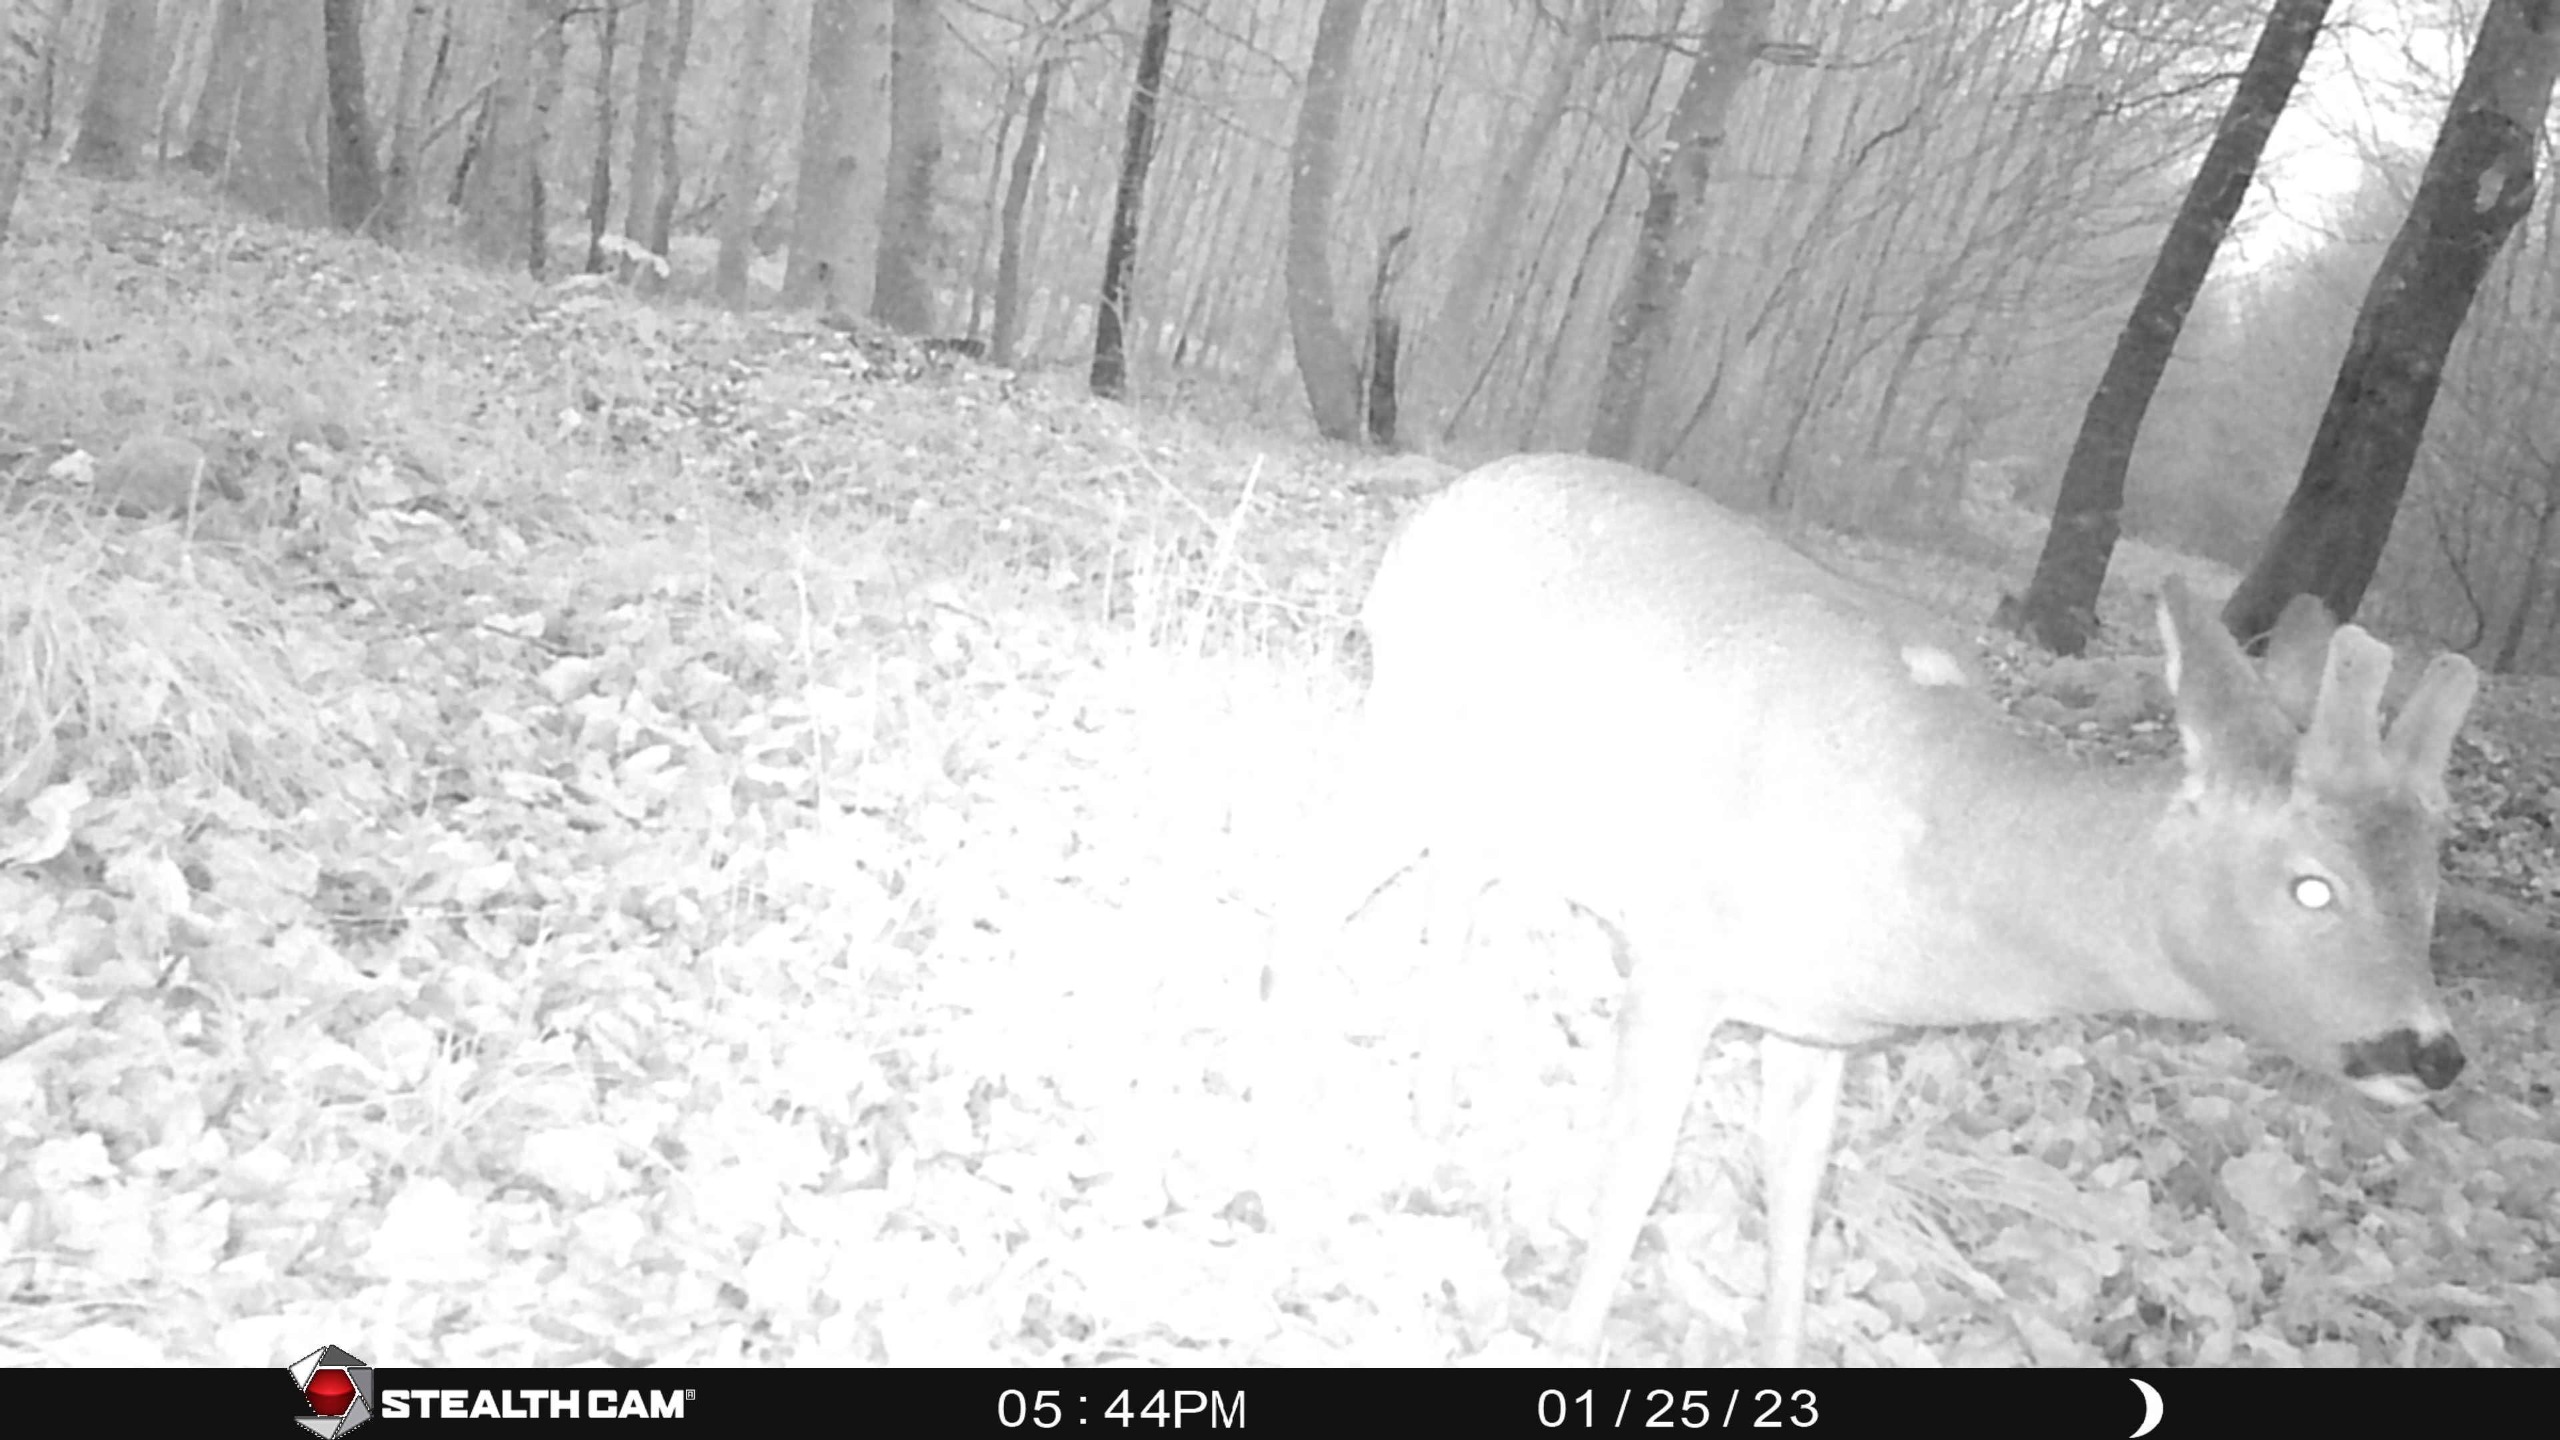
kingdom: Animalia
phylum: Chordata
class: Mammalia
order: Artiodactyla
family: Cervidae
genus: Capreolus
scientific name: Capreolus capreolus
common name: Rådyr
